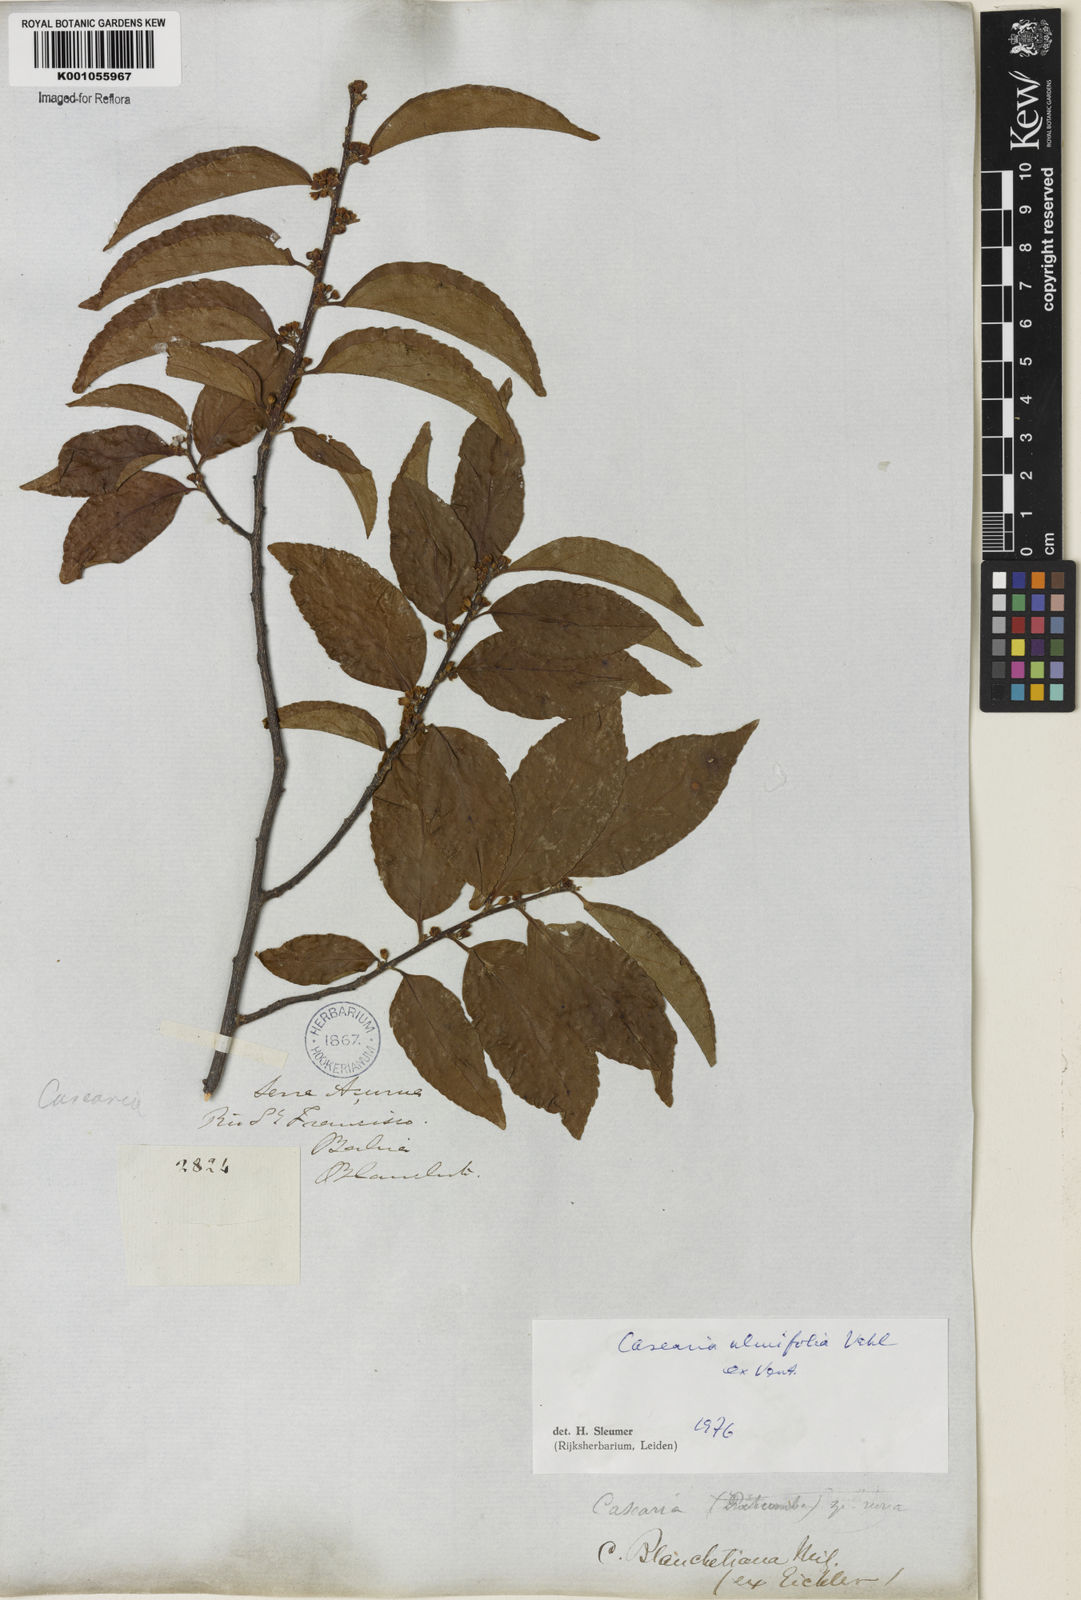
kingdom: Plantae
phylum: Tracheophyta
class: Magnoliopsida
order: Malpighiales
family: Salicaceae
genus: Casearia
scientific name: Casearia ulmifolia
